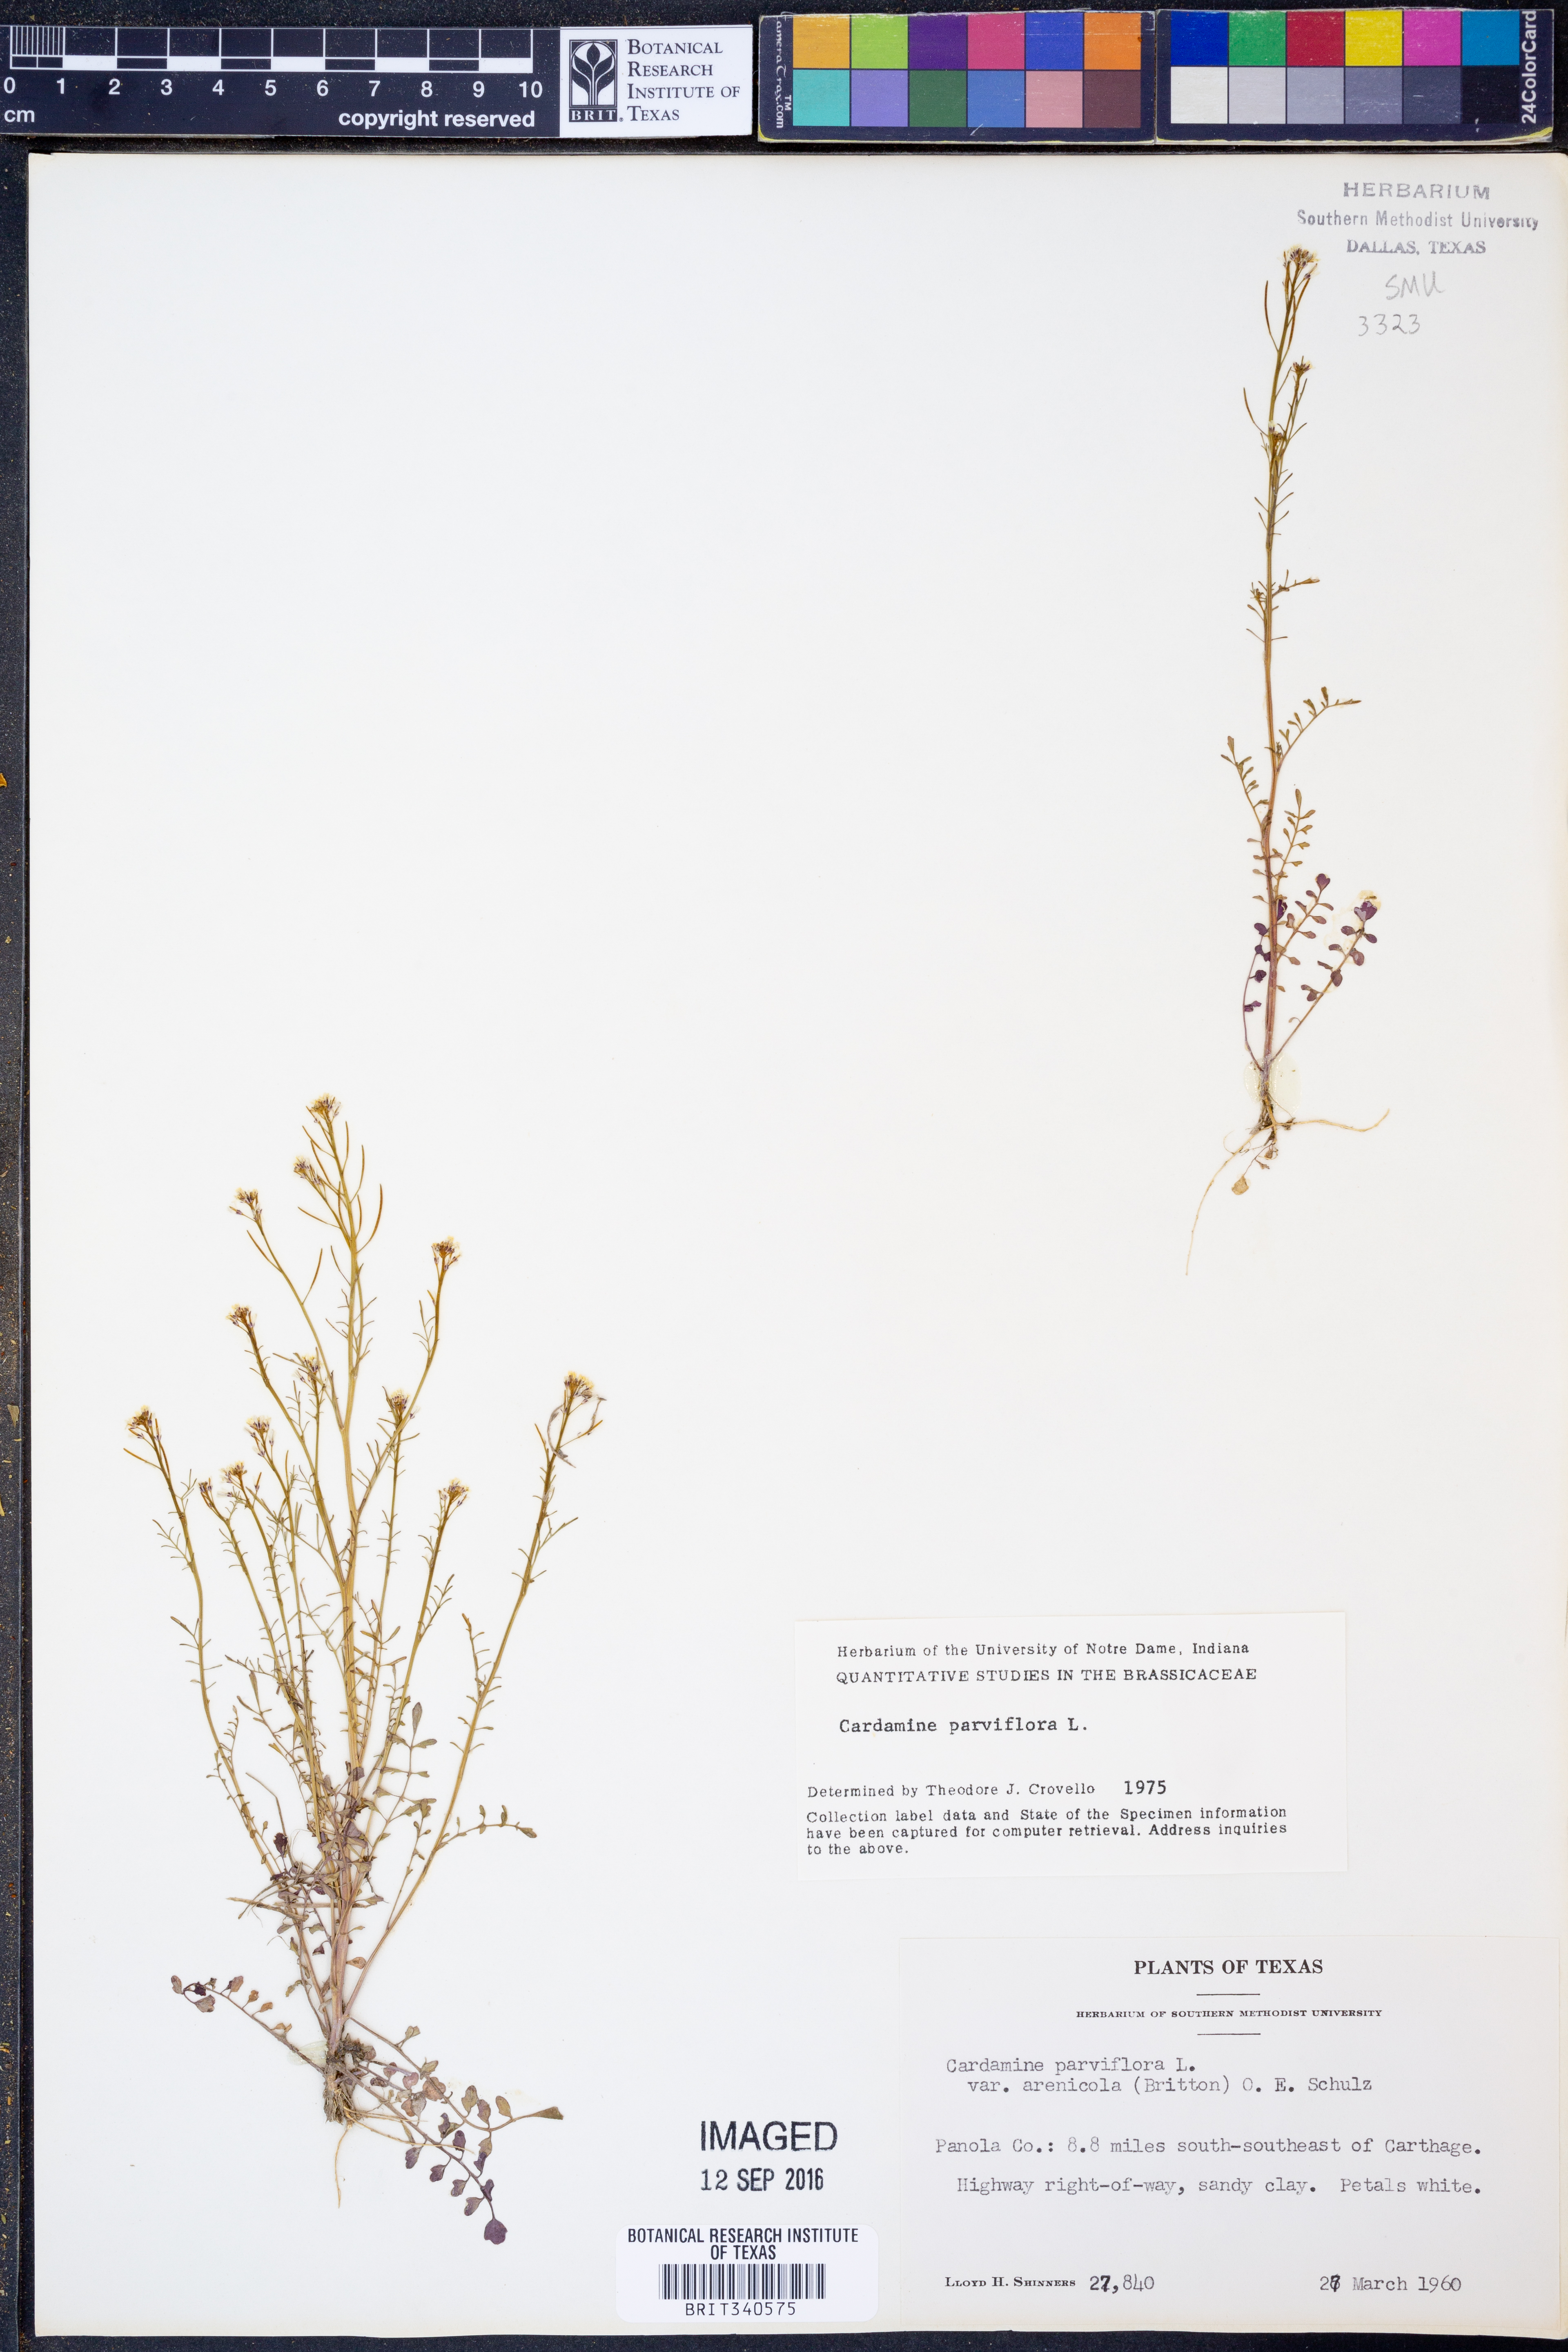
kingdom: Plantae
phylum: Tracheophyta
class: Magnoliopsida
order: Brassicales
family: Brassicaceae
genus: Cardamine
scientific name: Cardamine parviflora
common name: Sand bittercress
